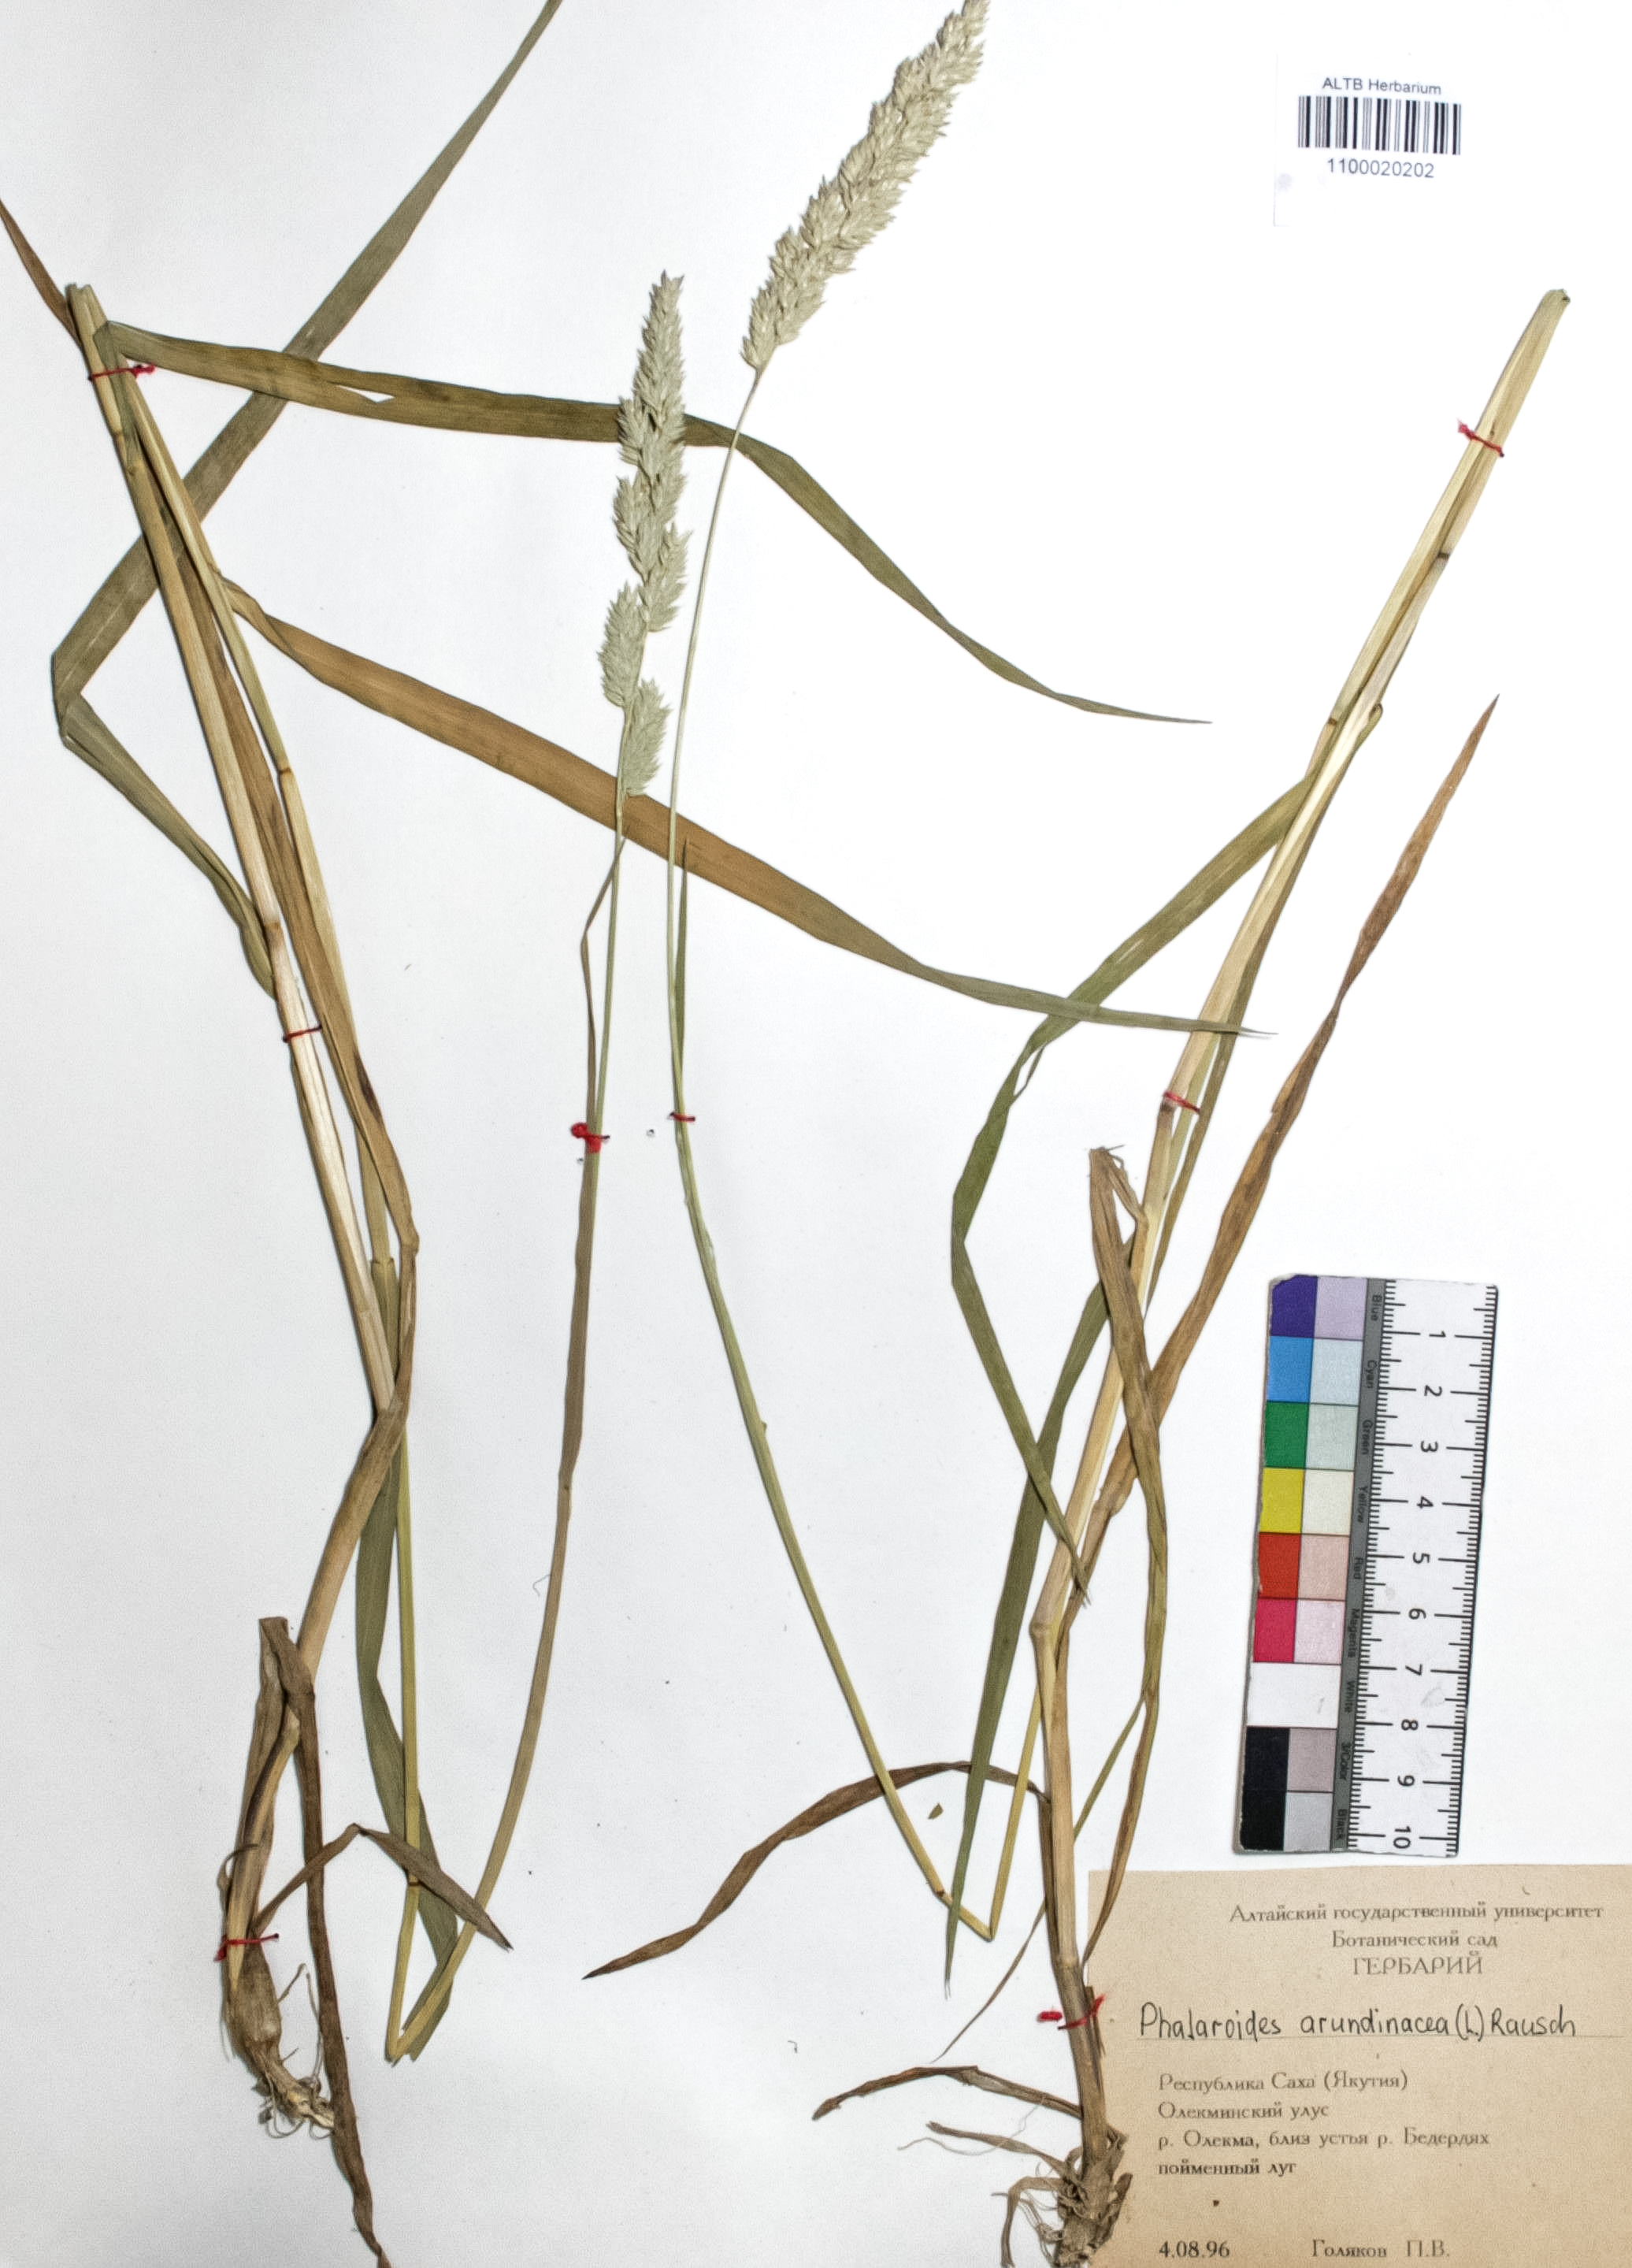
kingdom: Plantae
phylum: Tracheophyta
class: Liliopsida
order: Poales
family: Poaceae
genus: Phalaris
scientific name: Phalaris arundinacea
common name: Reed canary-grass
